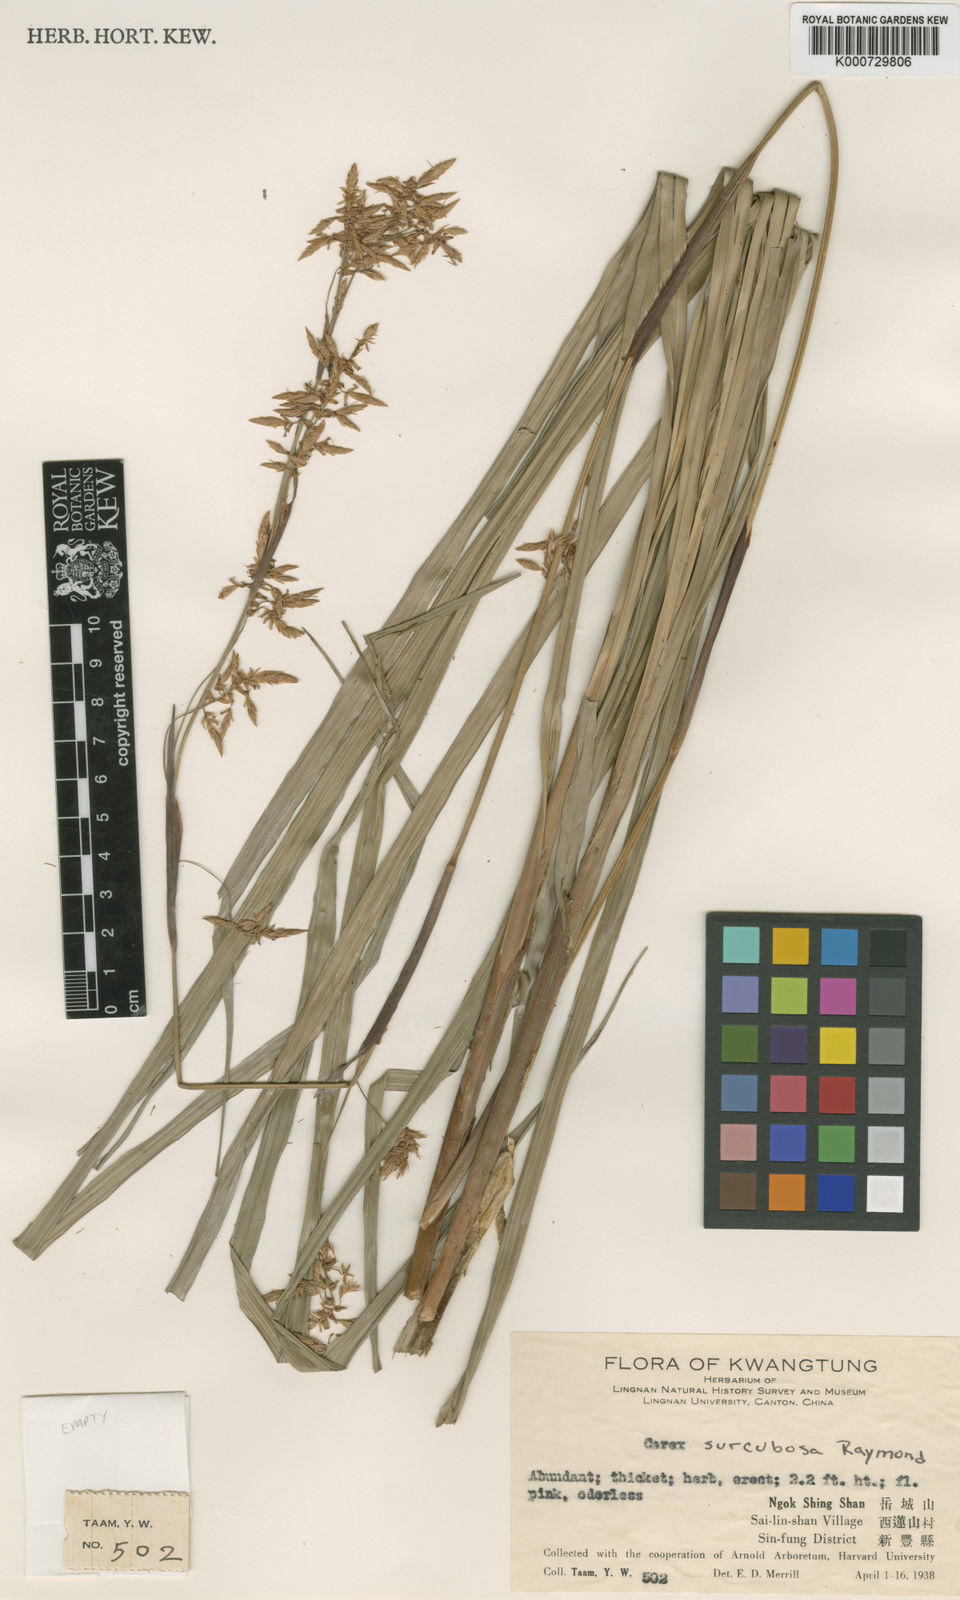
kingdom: Plantae
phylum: Tracheophyta
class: Liliopsida
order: Poales
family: Cyperaceae
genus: Carex
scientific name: Carex tsiangii
